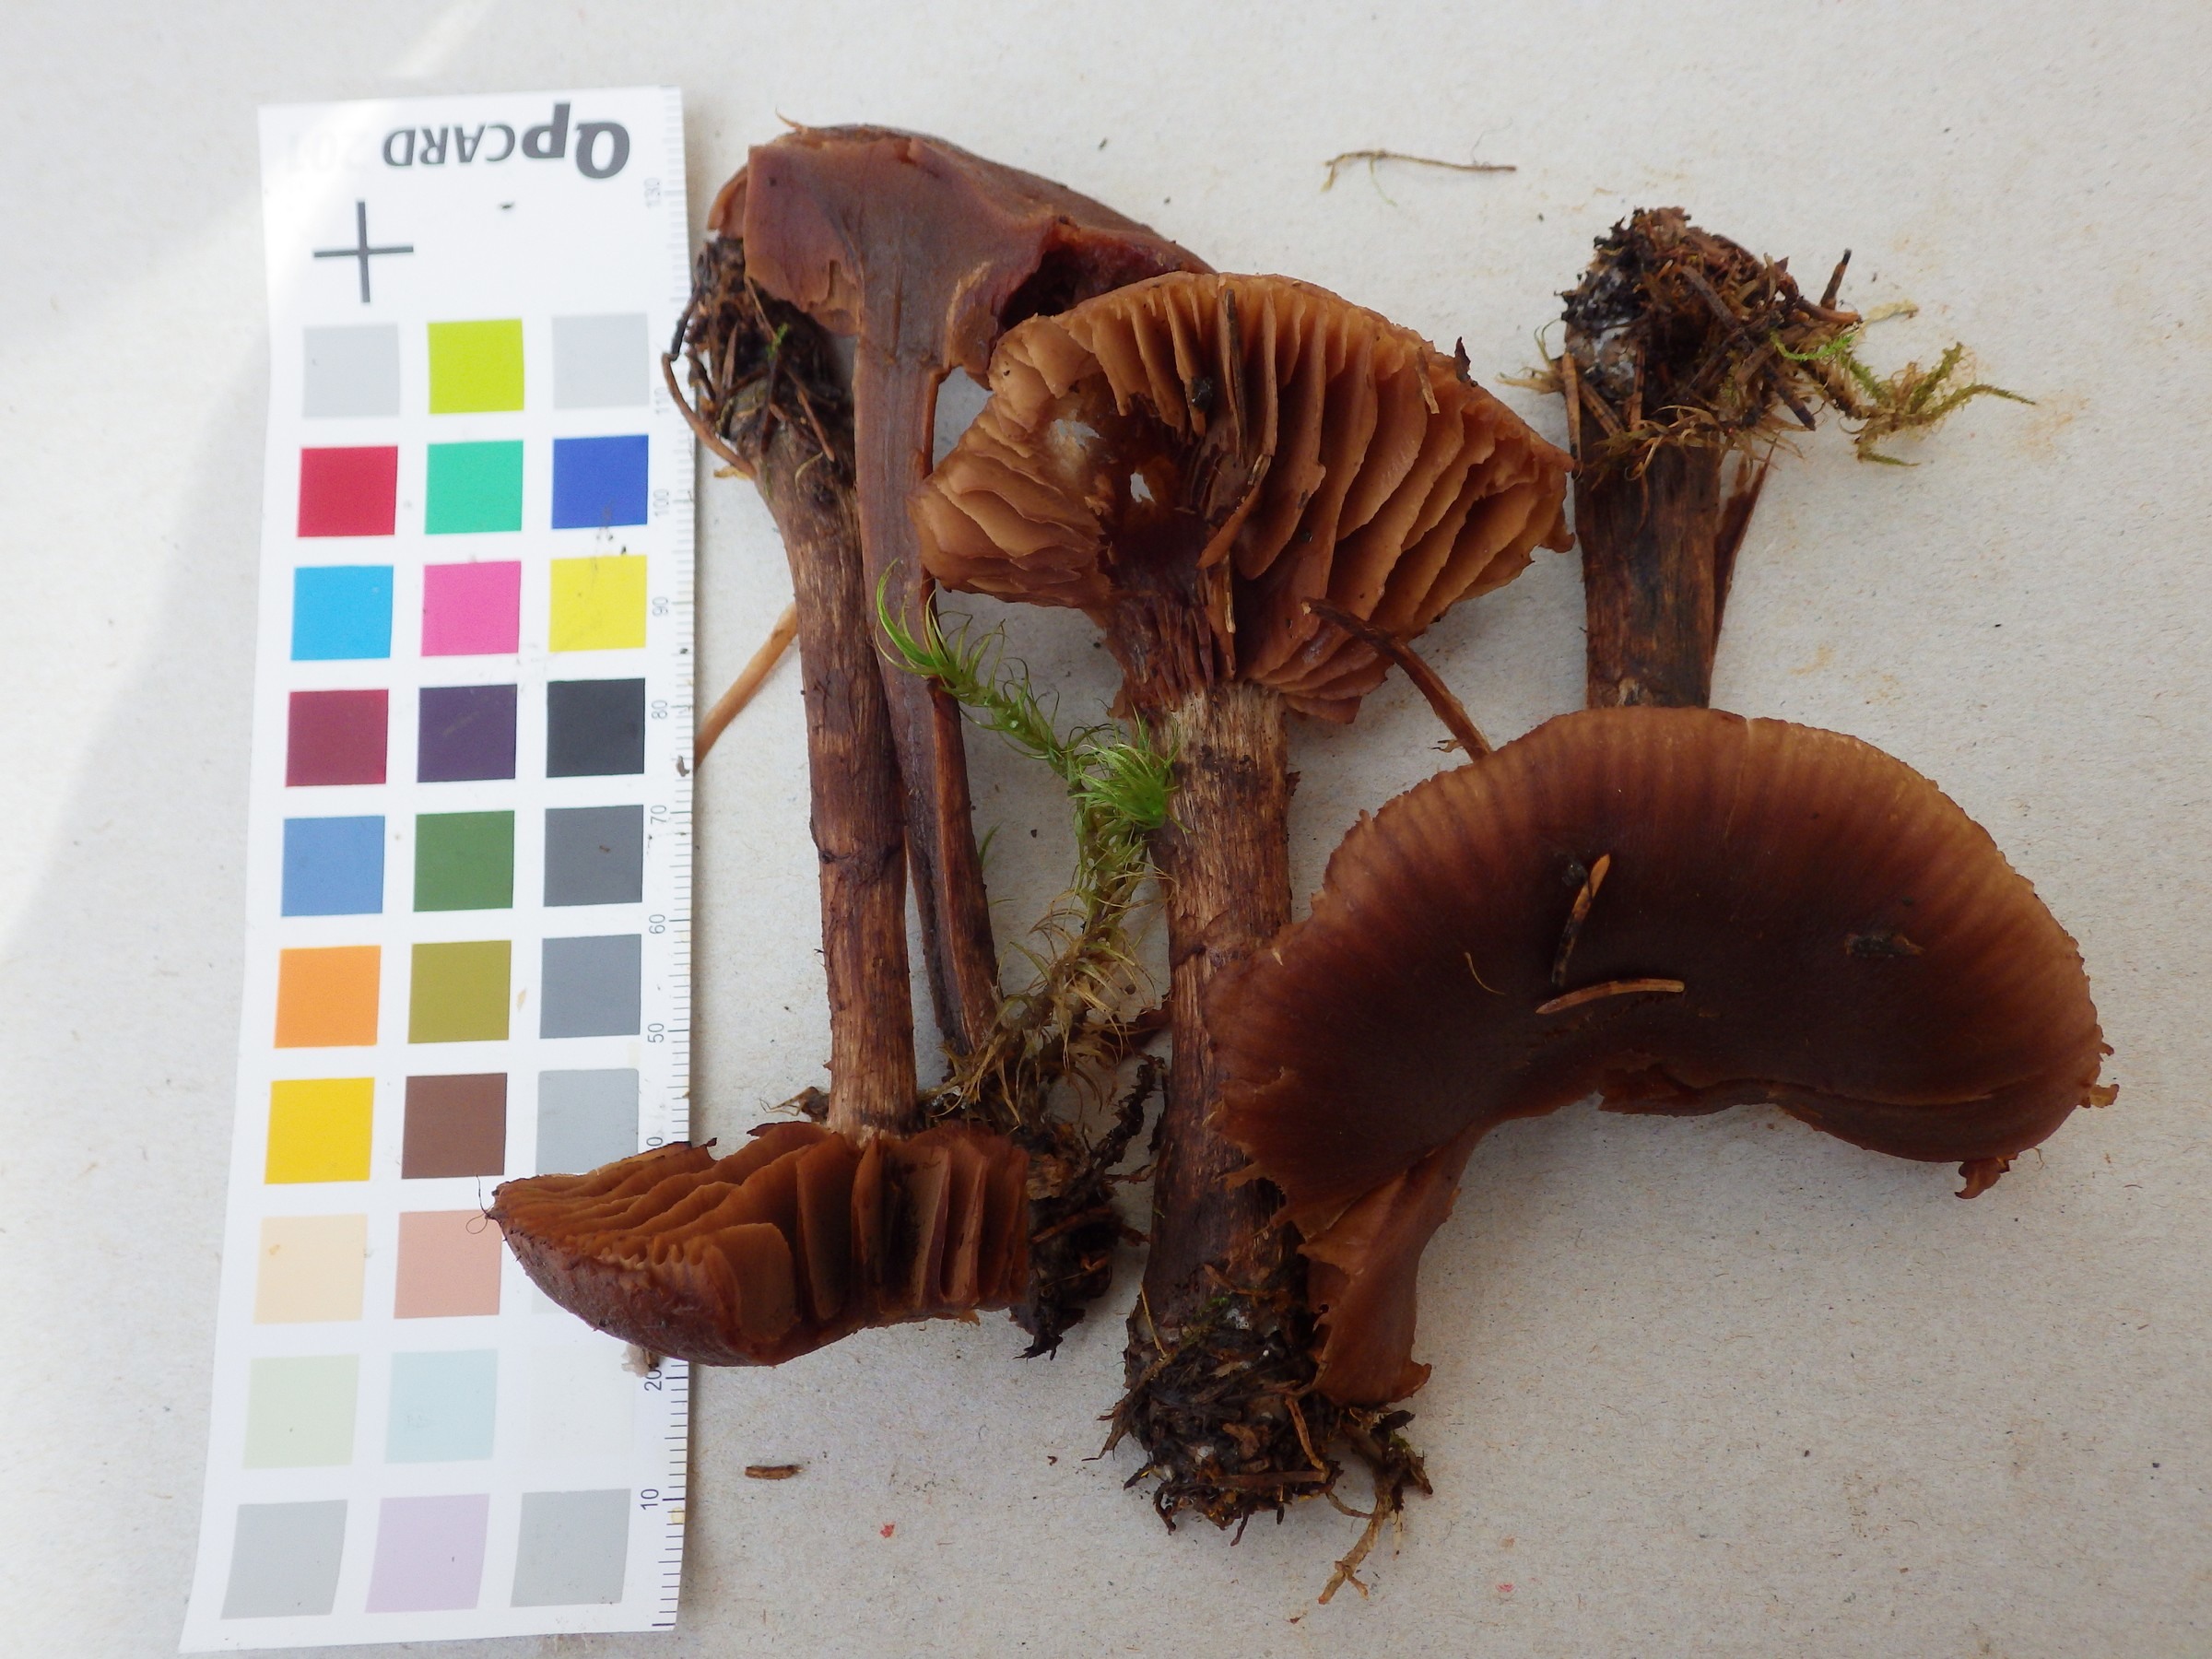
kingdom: Fungi
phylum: Basidiomycota
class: Agaricomycetes
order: Agaricales
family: Cortinariaceae
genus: Cortinarius
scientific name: Cortinarius brunneus
